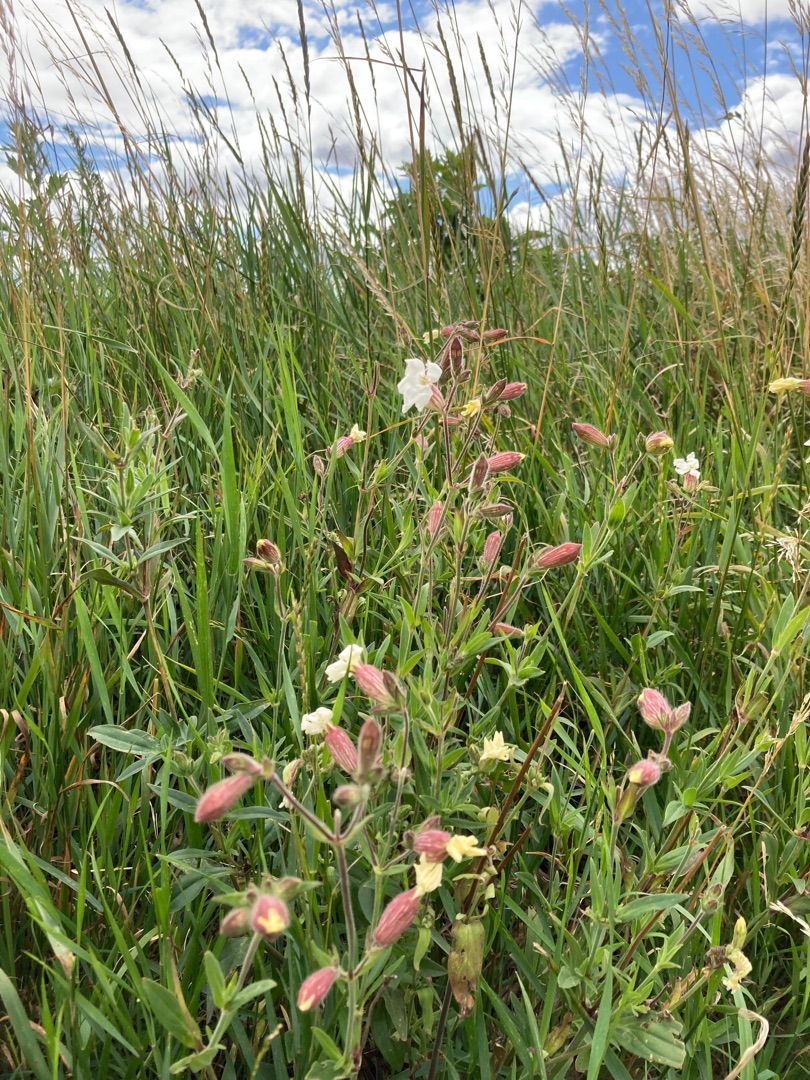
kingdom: Plantae
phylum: Tracheophyta
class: Magnoliopsida
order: Caryophyllales
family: Caryophyllaceae
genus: Silene
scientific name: Silene latifolia
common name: Aftenpragtstjerne
